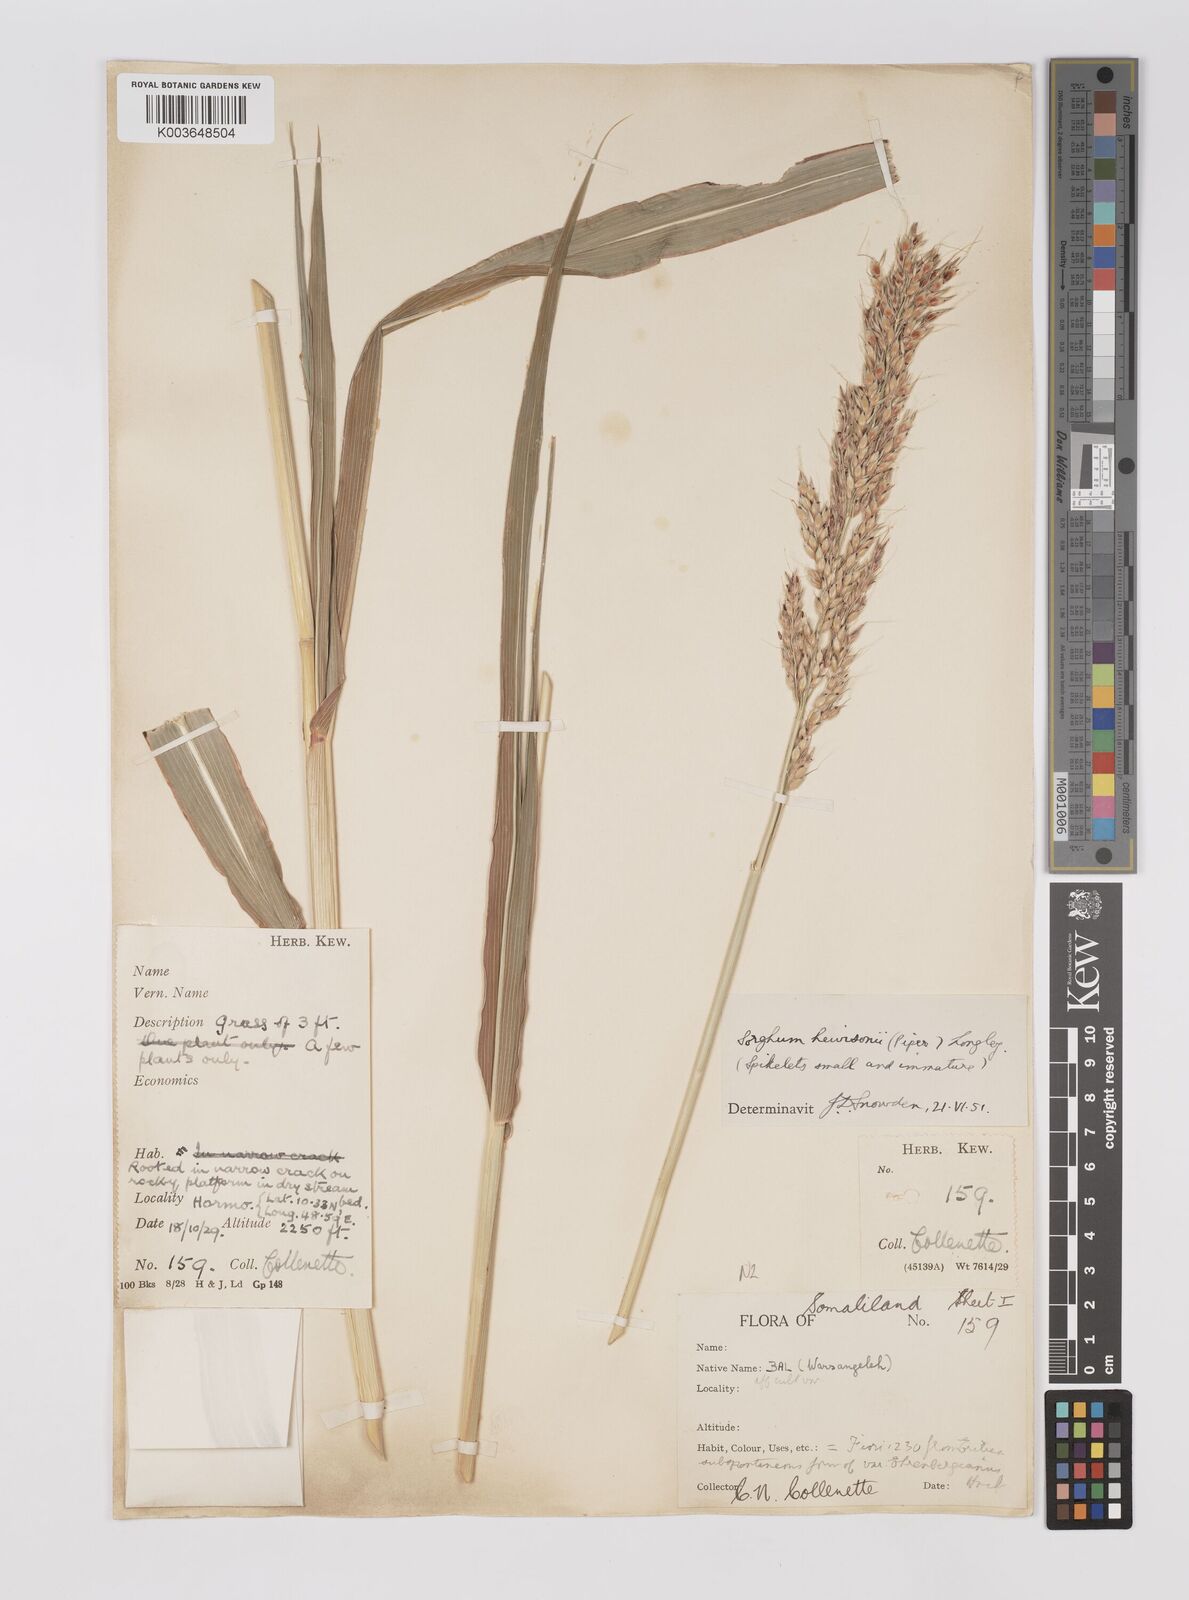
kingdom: Plantae
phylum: Tracheophyta
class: Liliopsida
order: Poales
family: Poaceae
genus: Sorghum
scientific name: Sorghum arundinaceum
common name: Sorghum
